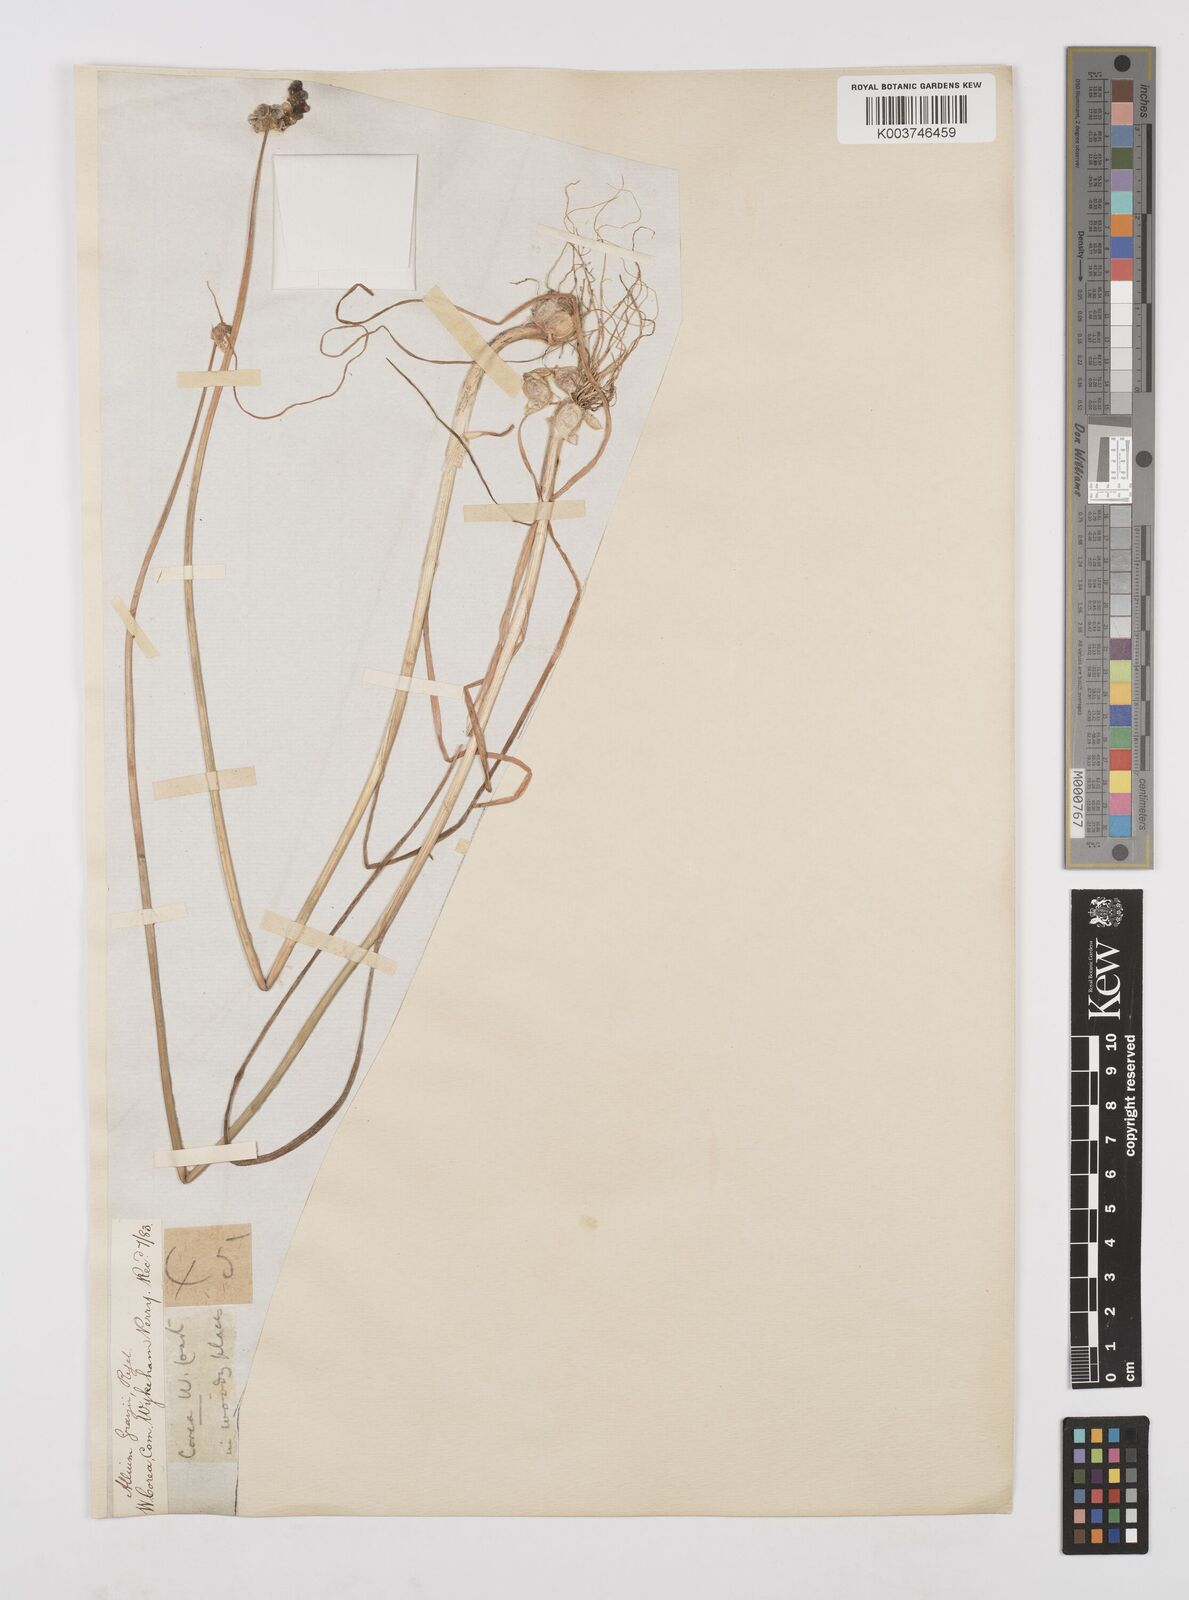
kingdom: Plantae
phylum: Tracheophyta
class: Liliopsida
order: Asparagales
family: Amaryllidaceae
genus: Allium
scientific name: Allium macrostemon
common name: Chinese garlic
